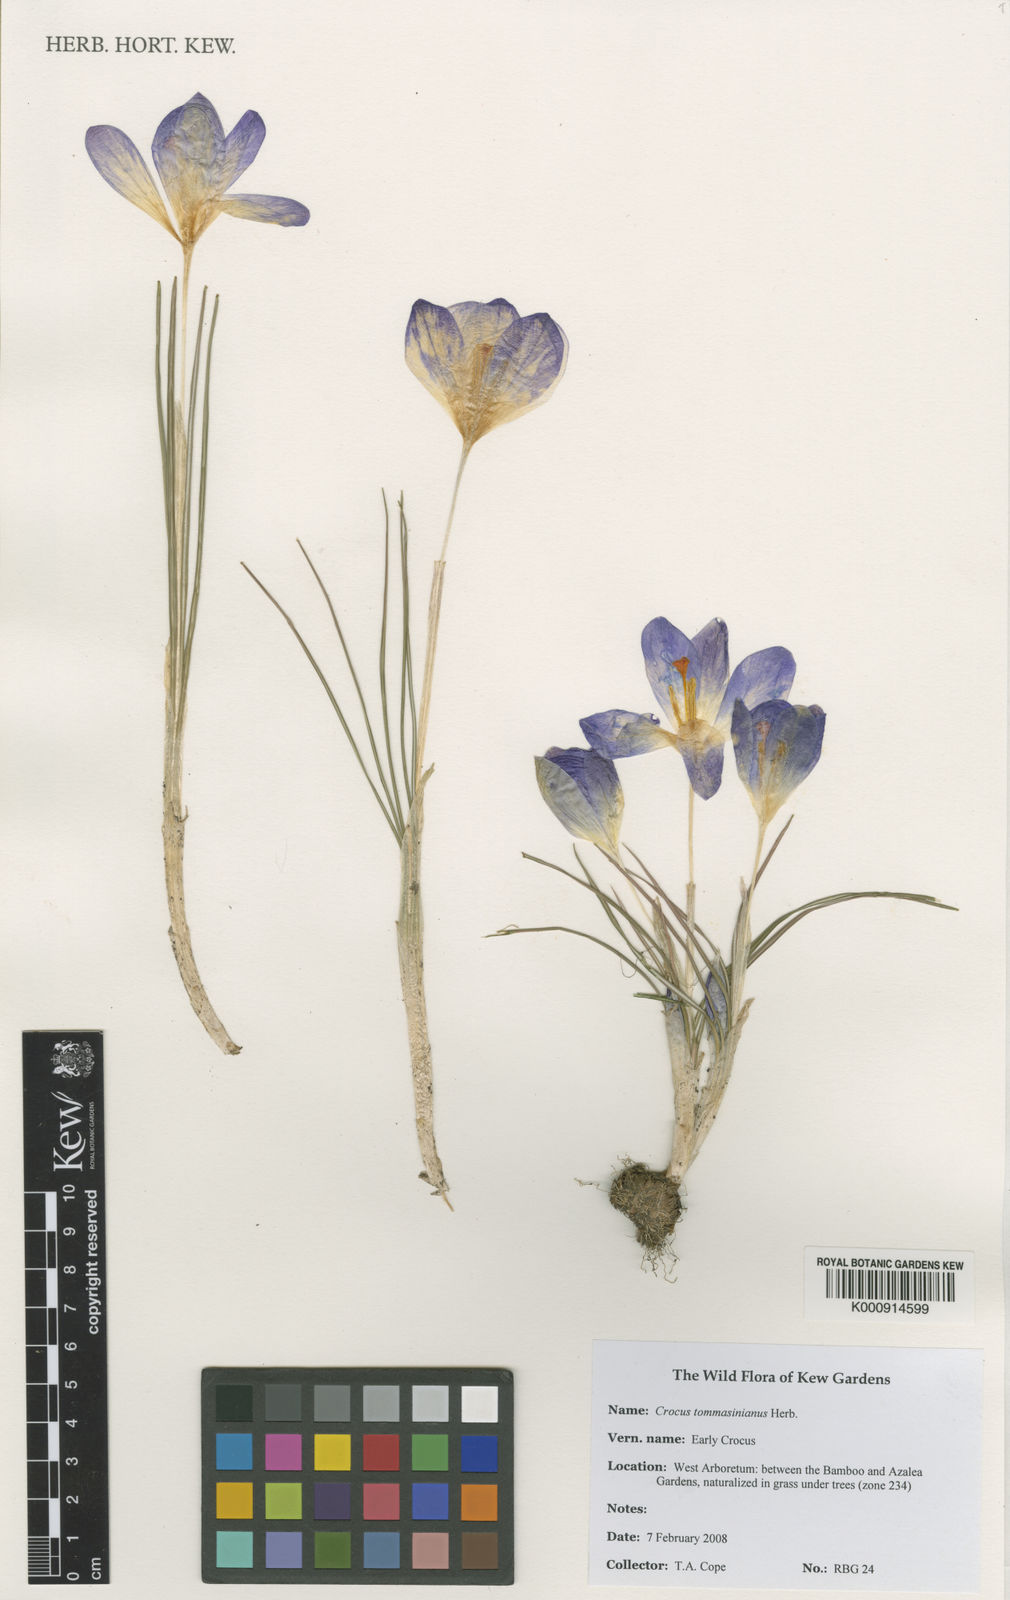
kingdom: Plantae
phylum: Tracheophyta
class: Liliopsida
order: Asparagales
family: Iridaceae
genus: Crocus
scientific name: Crocus tommasinianus
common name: Early crocus
